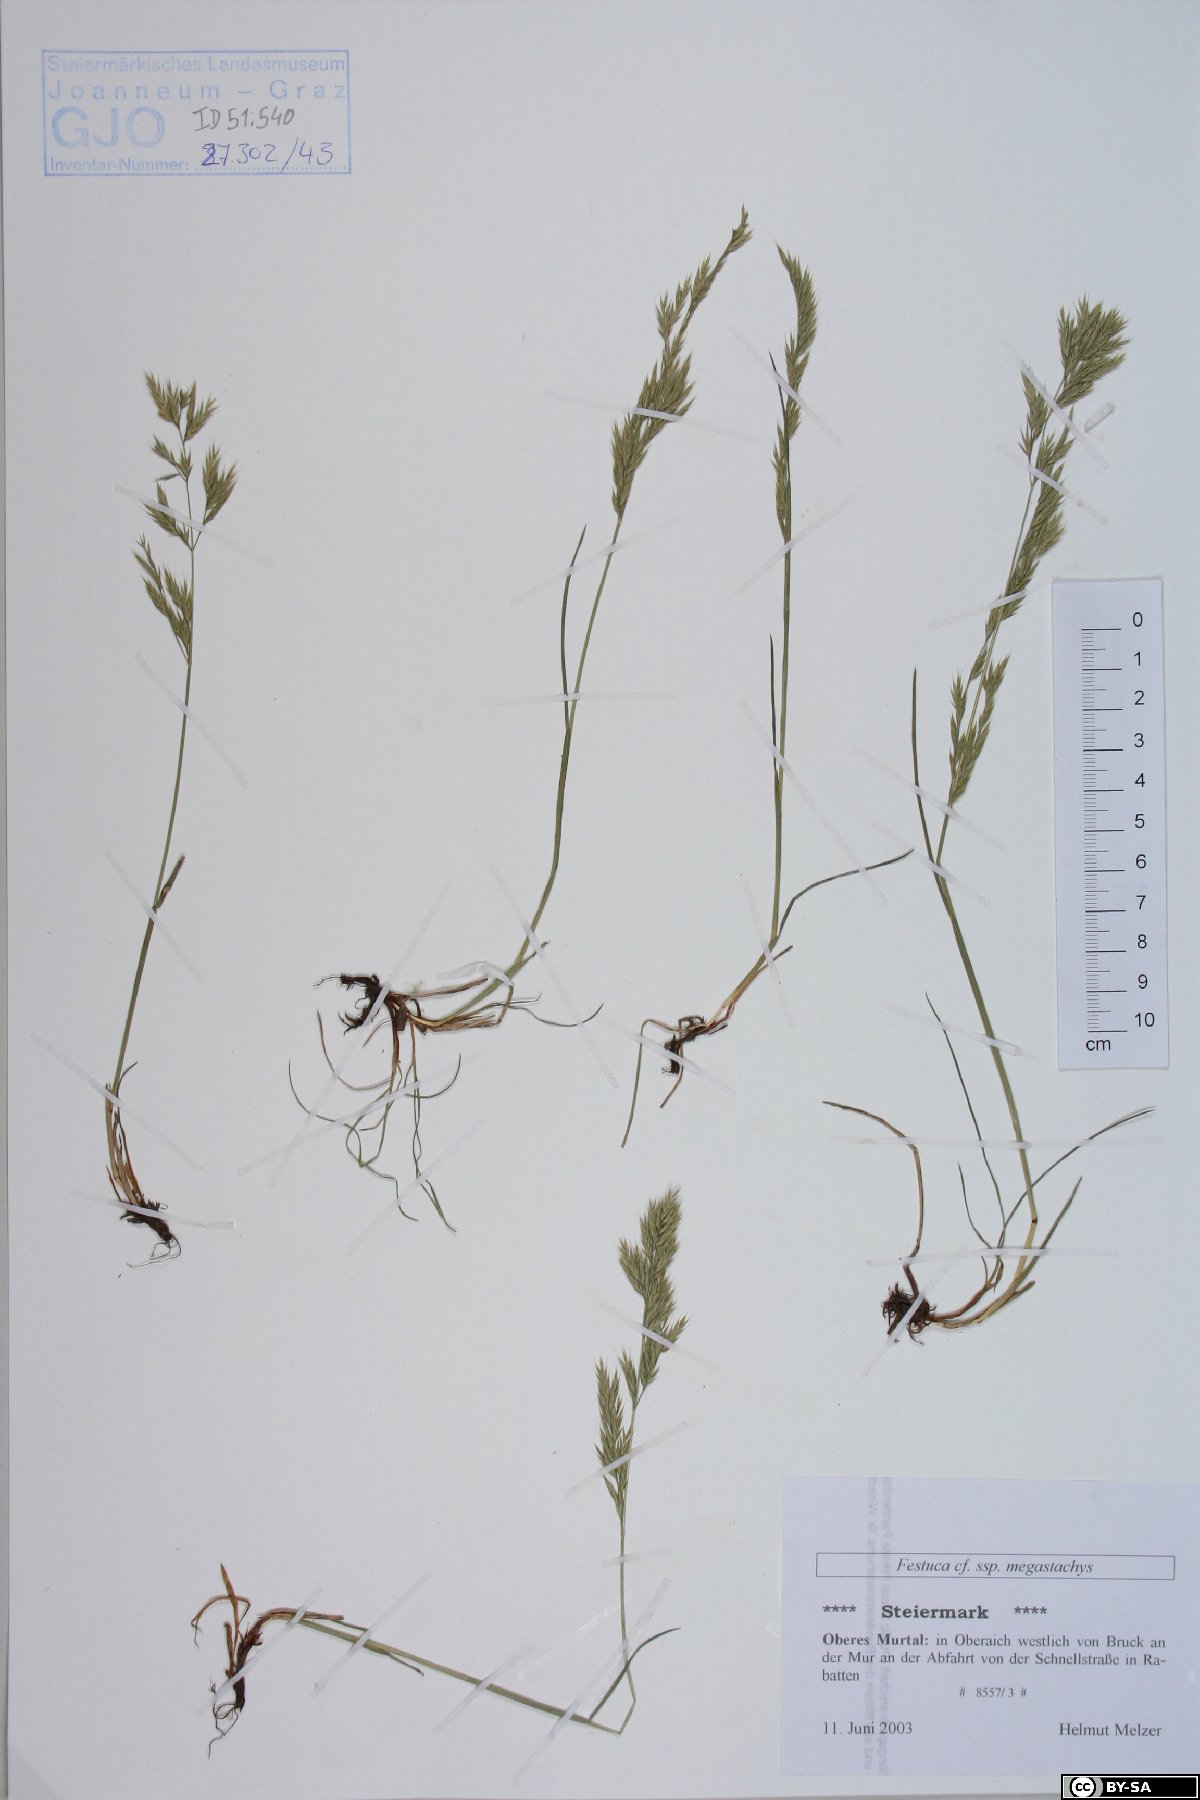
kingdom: Plantae
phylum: Tracheophyta
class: Liliopsida
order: Poales
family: Poaceae
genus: Festuca
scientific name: Festuca rubra
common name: Red fescue
